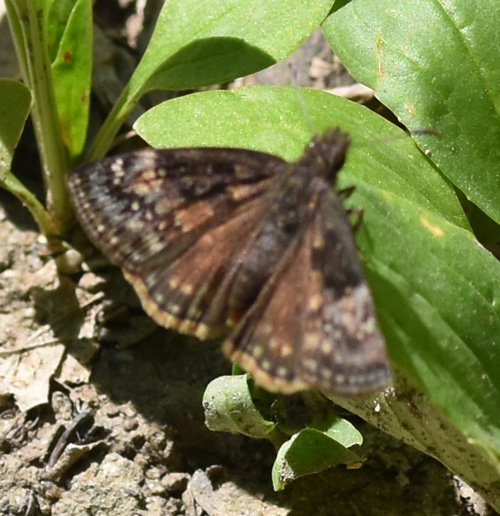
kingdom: Animalia
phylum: Arthropoda
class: Insecta
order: Lepidoptera
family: Hesperiidae
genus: Erynnis
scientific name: Erynnis
